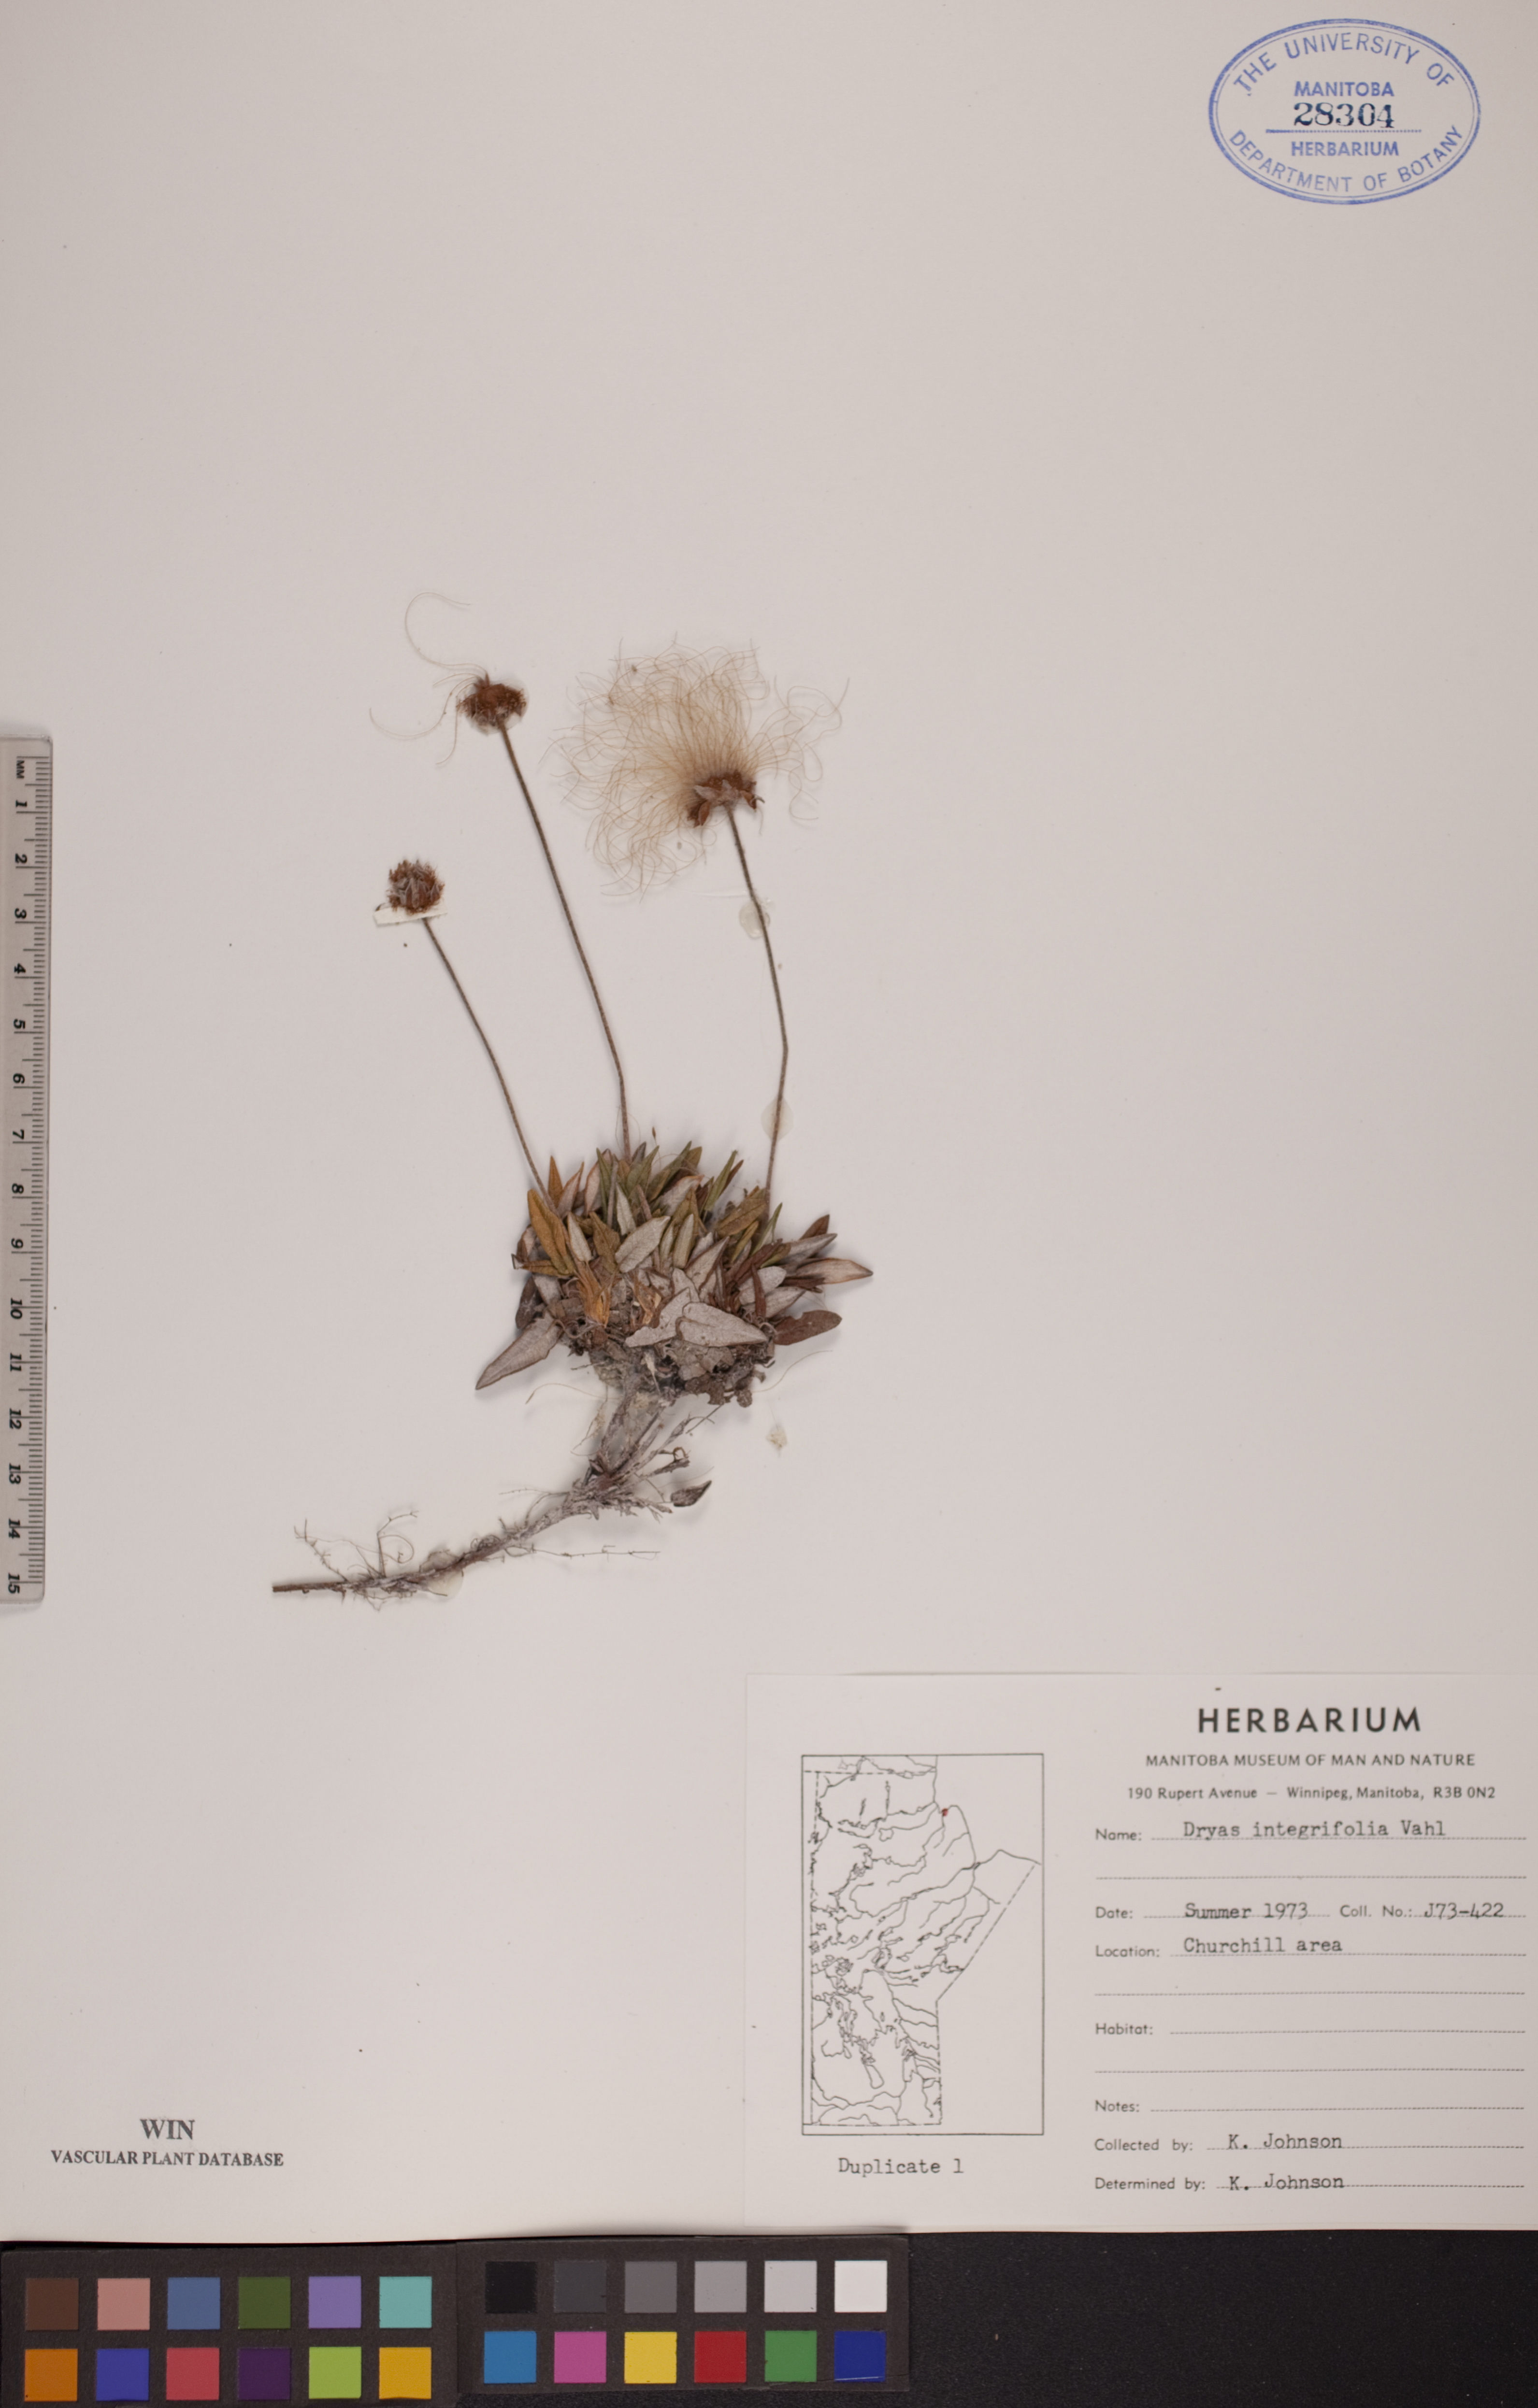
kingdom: Plantae
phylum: Tracheophyta
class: Magnoliopsida
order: Rosales
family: Rosaceae
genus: Dryas
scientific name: Dryas integrifolia
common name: Entire-leaved mountain avens
